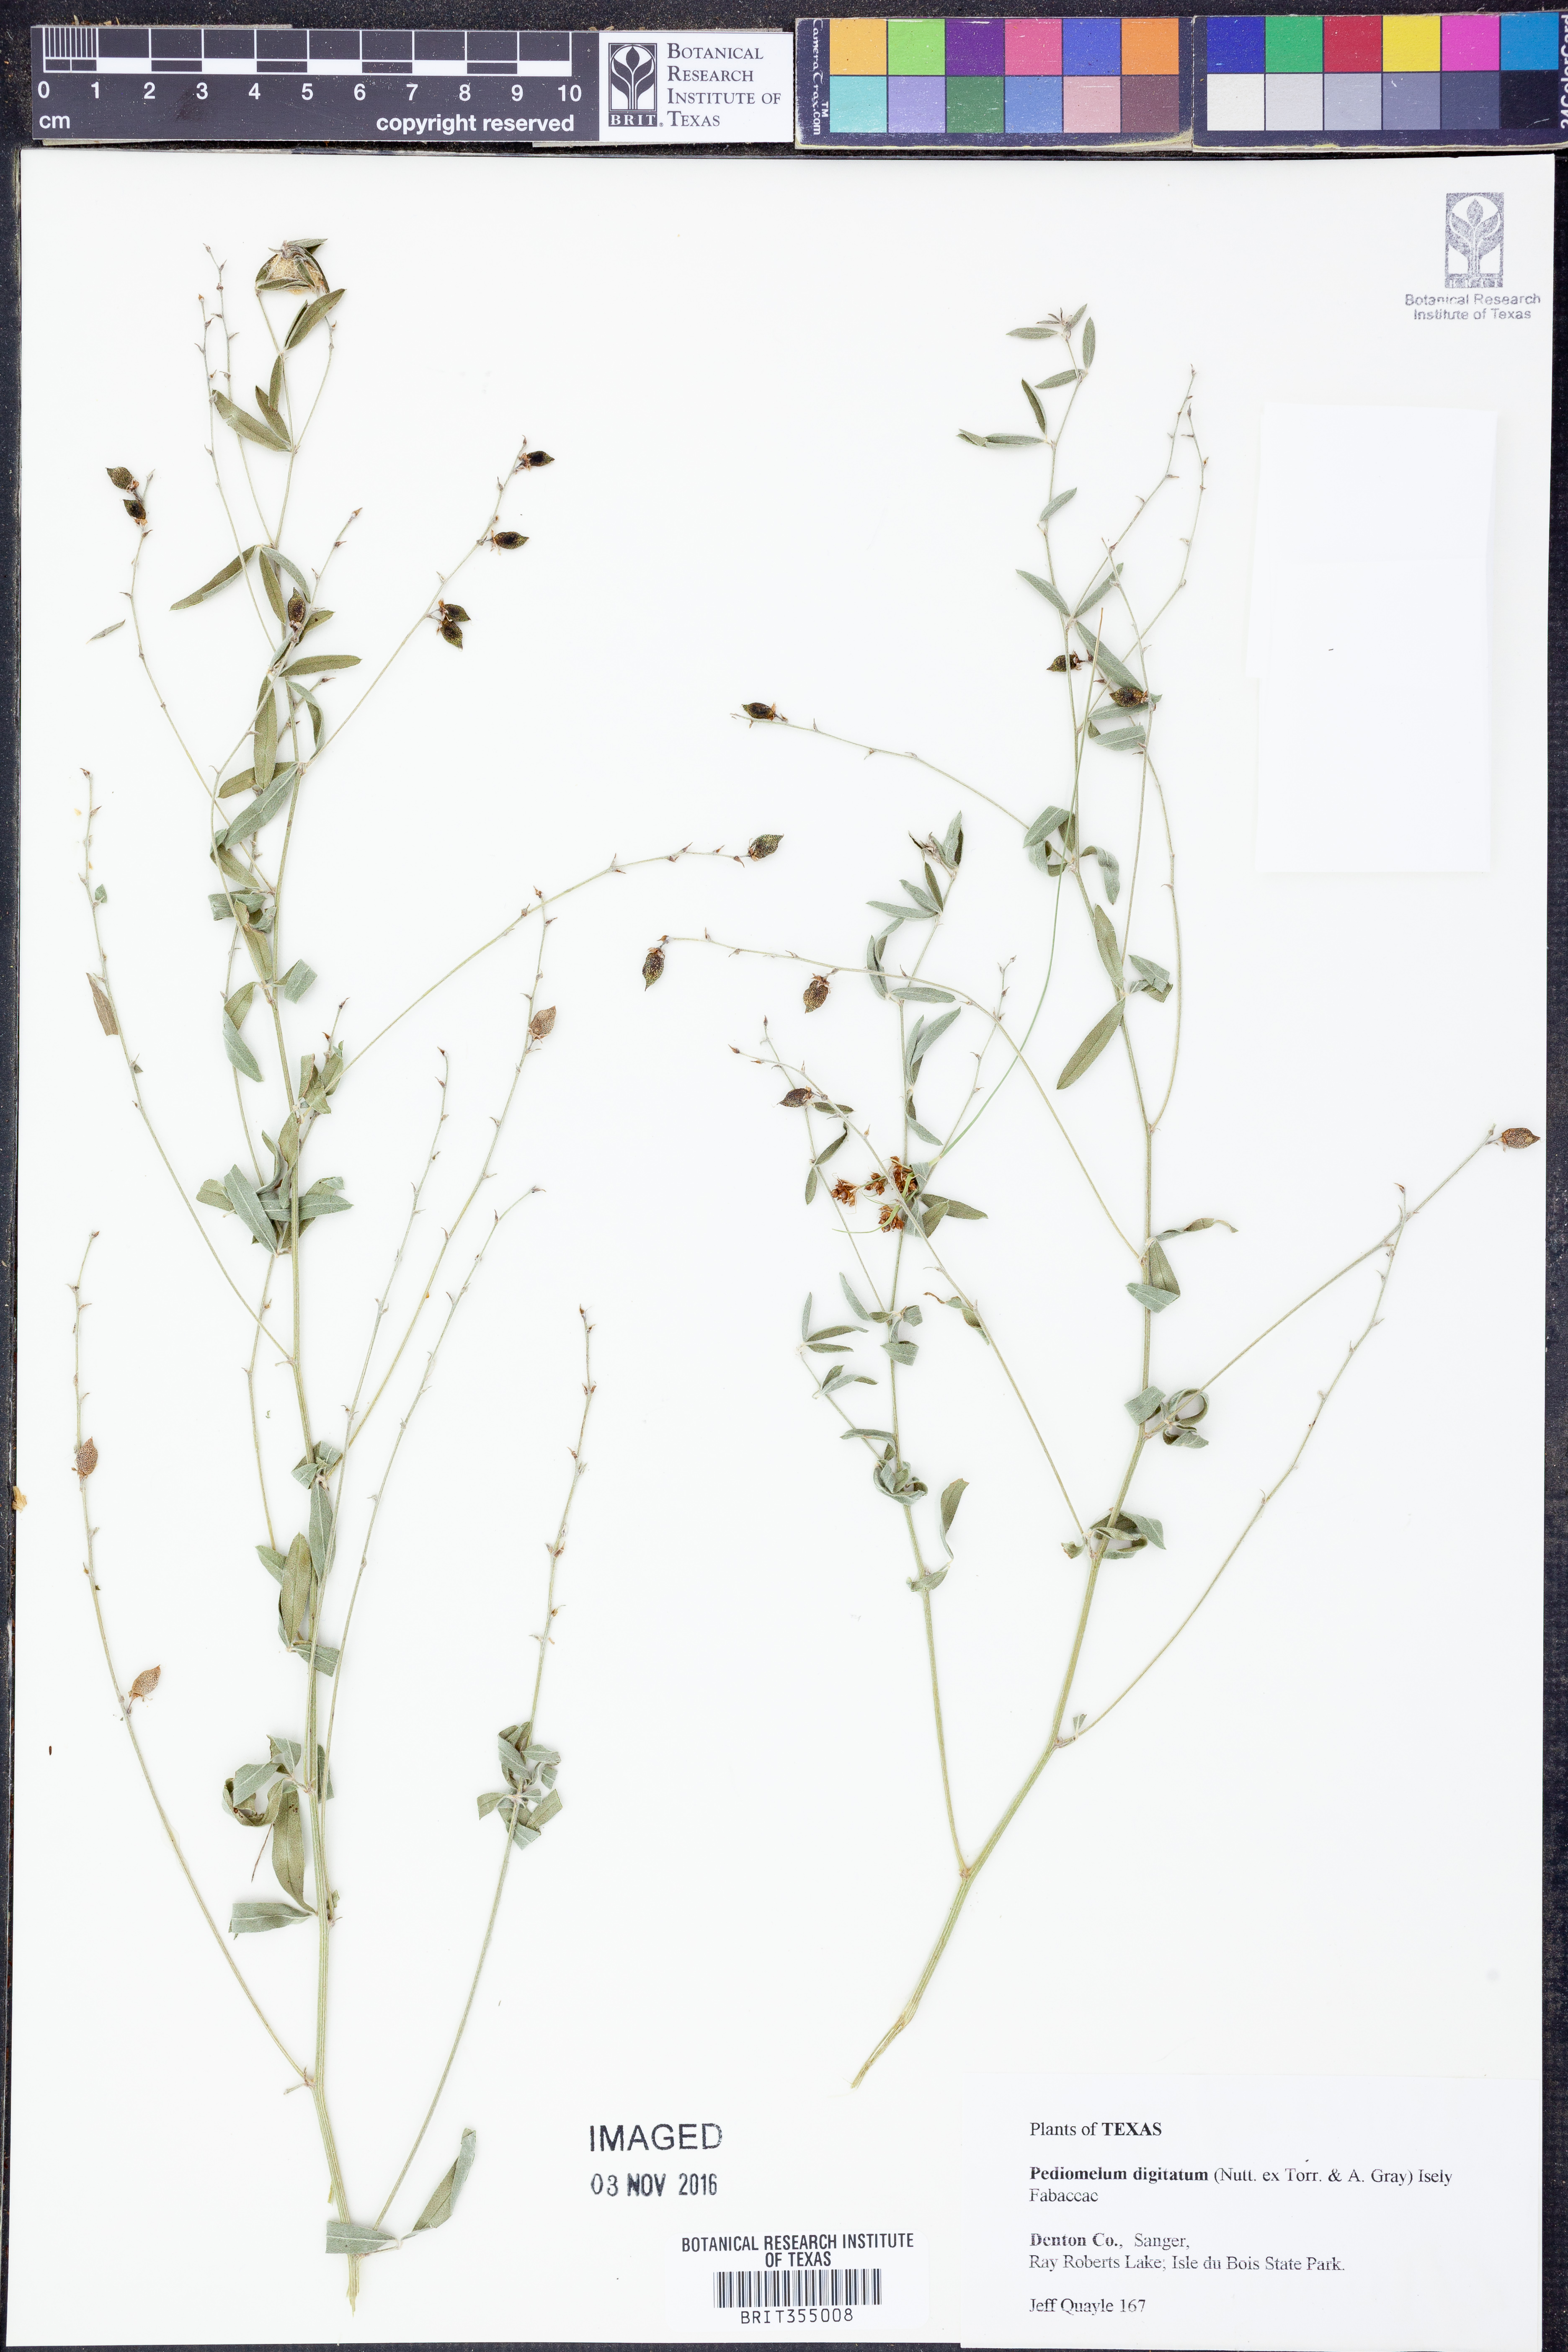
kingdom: Plantae
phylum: Tracheophyta
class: Magnoliopsida
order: Fabales
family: Fabaceae
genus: Pediomelum
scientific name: Pediomelum digitatum
